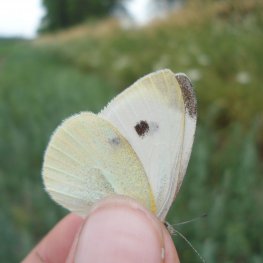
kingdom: Animalia
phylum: Arthropoda
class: Insecta
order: Lepidoptera
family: Pieridae
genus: Pieris
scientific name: Pieris rapae
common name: Cabbage White
